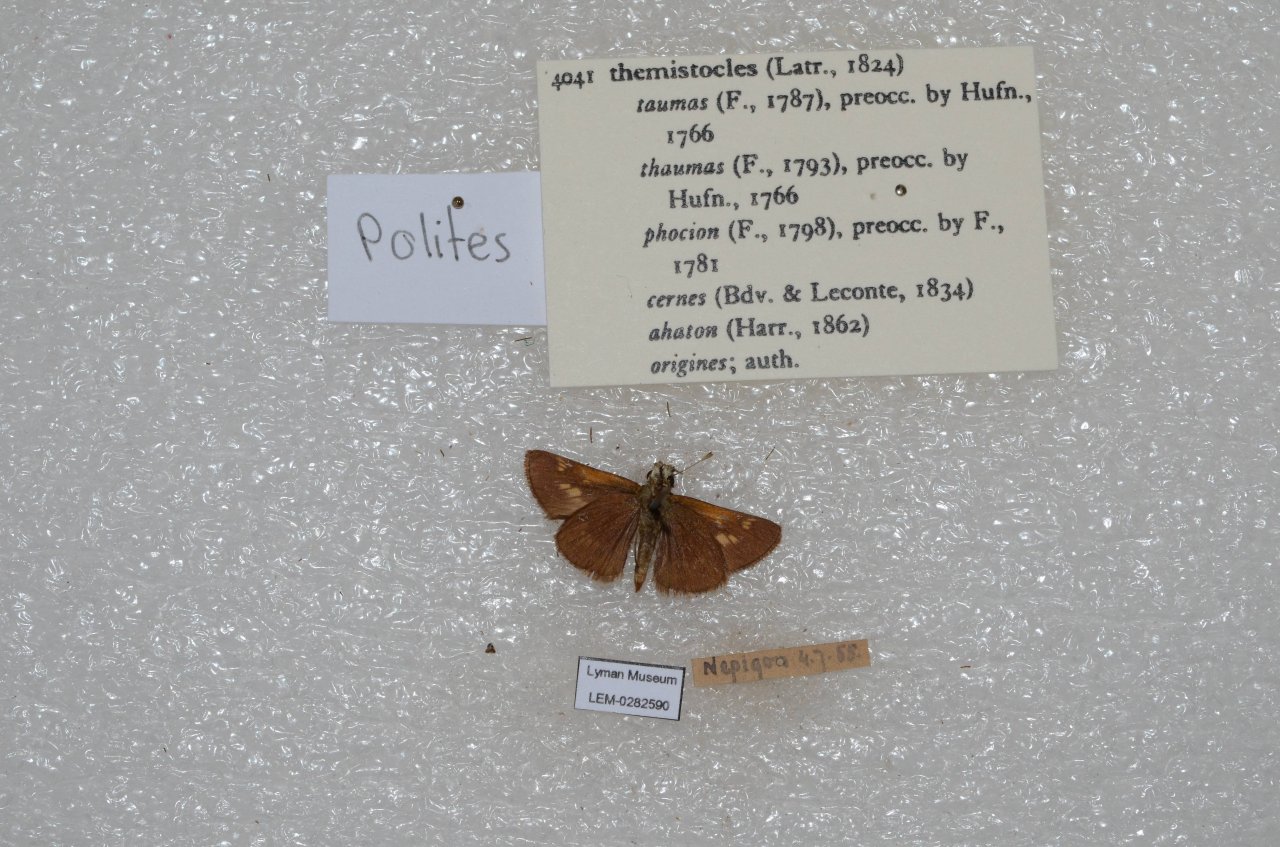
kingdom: Animalia
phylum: Arthropoda
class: Insecta
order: Lepidoptera
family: Hesperiidae
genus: Polites
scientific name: Polites themistocles
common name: Tawny-edged Skipper
